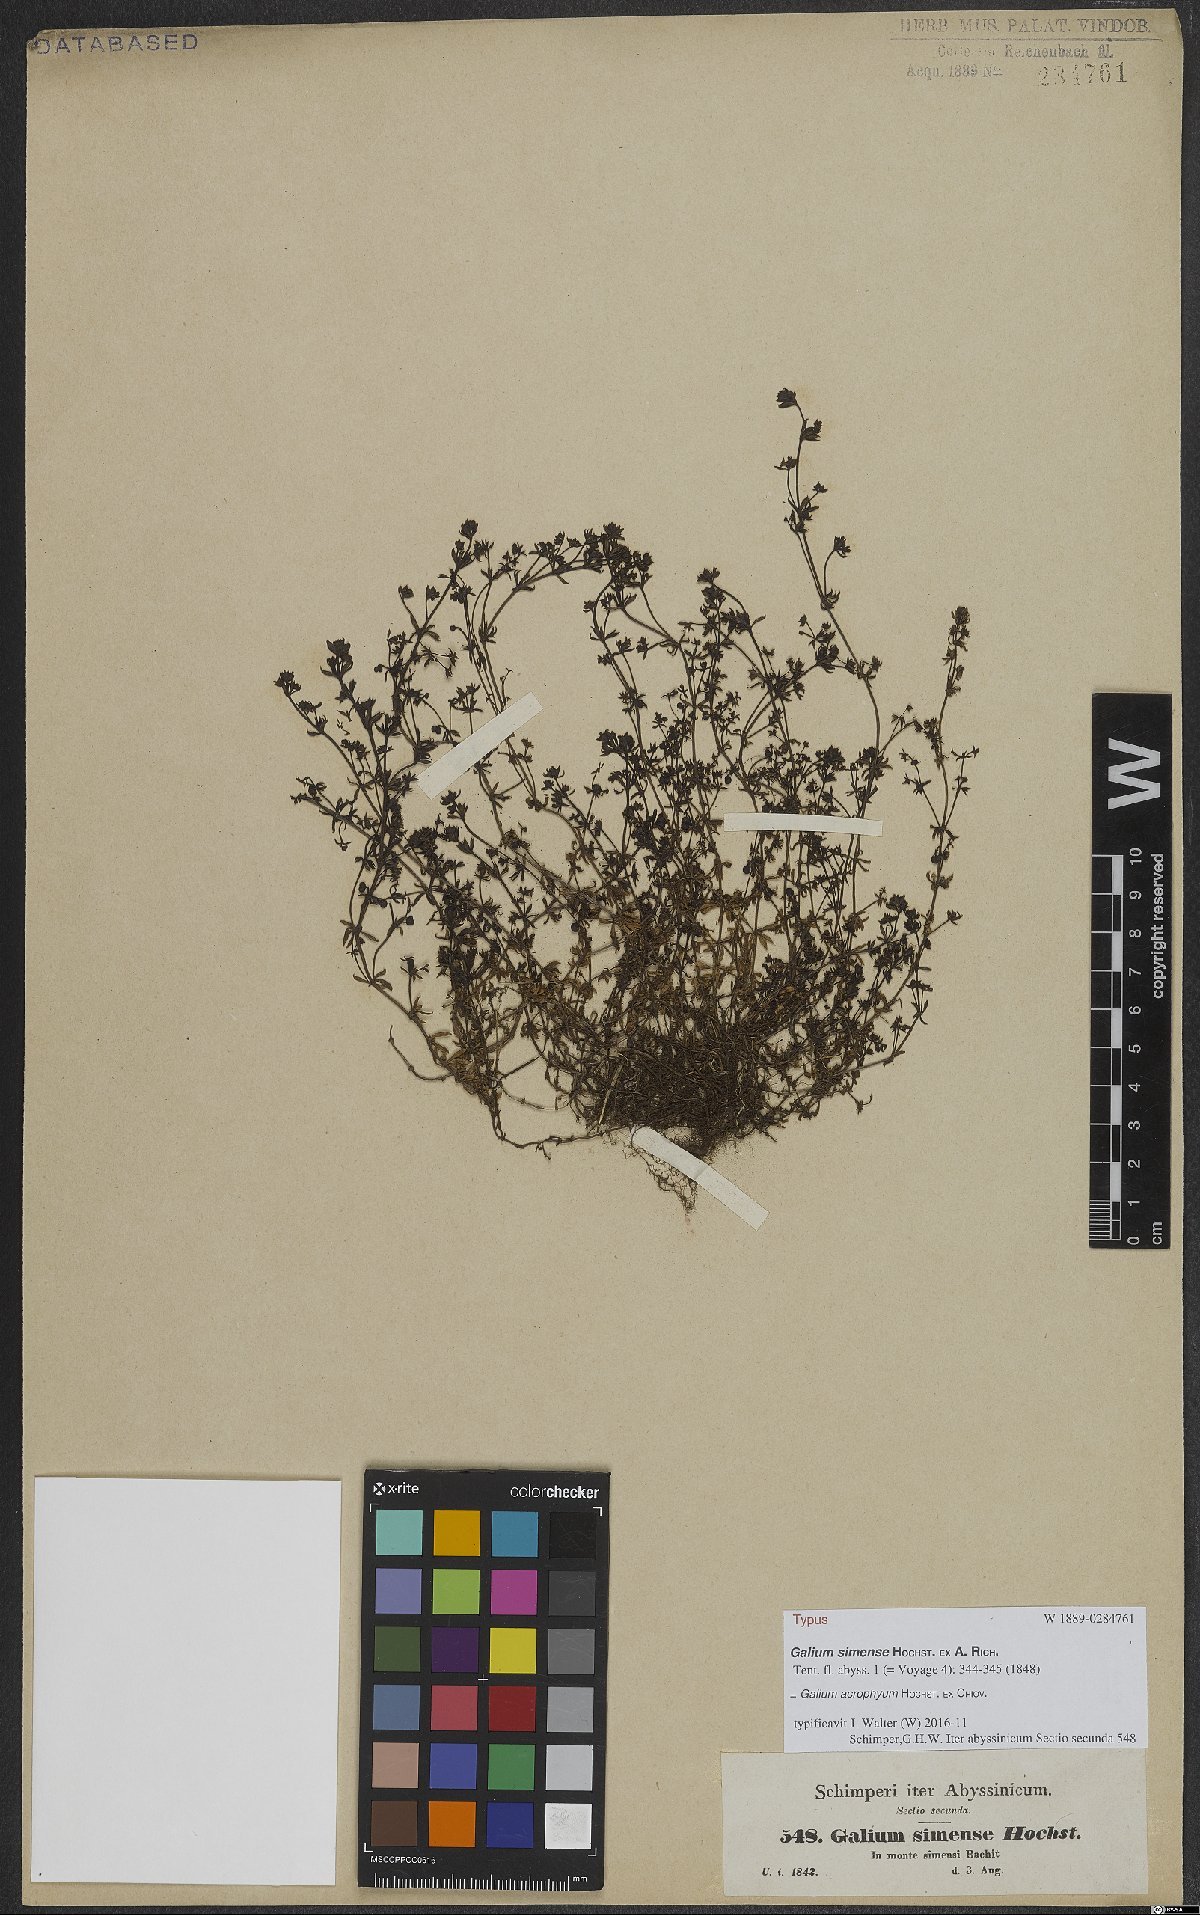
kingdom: Plantae
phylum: Tracheophyta
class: Magnoliopsida
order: Gentianales
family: Rubiaceae
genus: Galium
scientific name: Galium acrophyum
